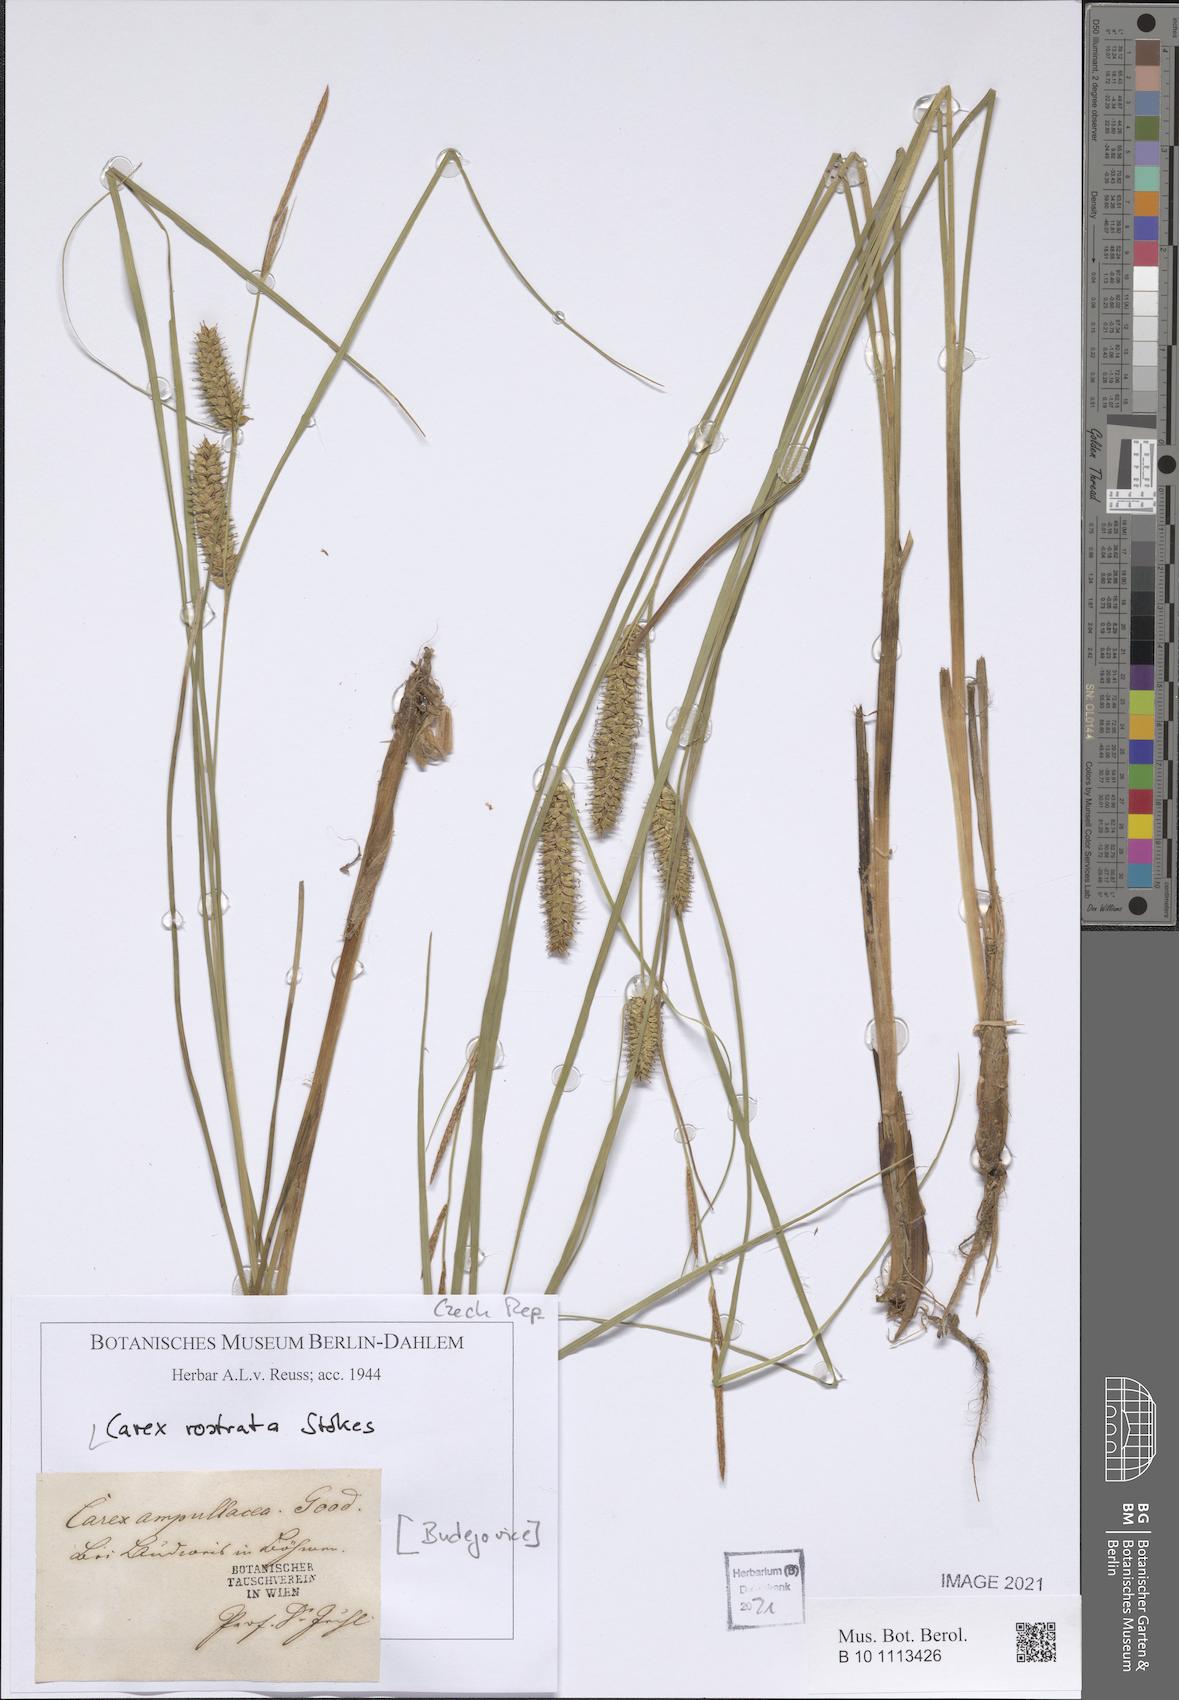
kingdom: Plantae
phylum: Tracheophyta
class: Liliopsida
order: Poales
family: Cyperaceae
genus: Carex
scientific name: Carex rostrata
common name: Bottle sedge
